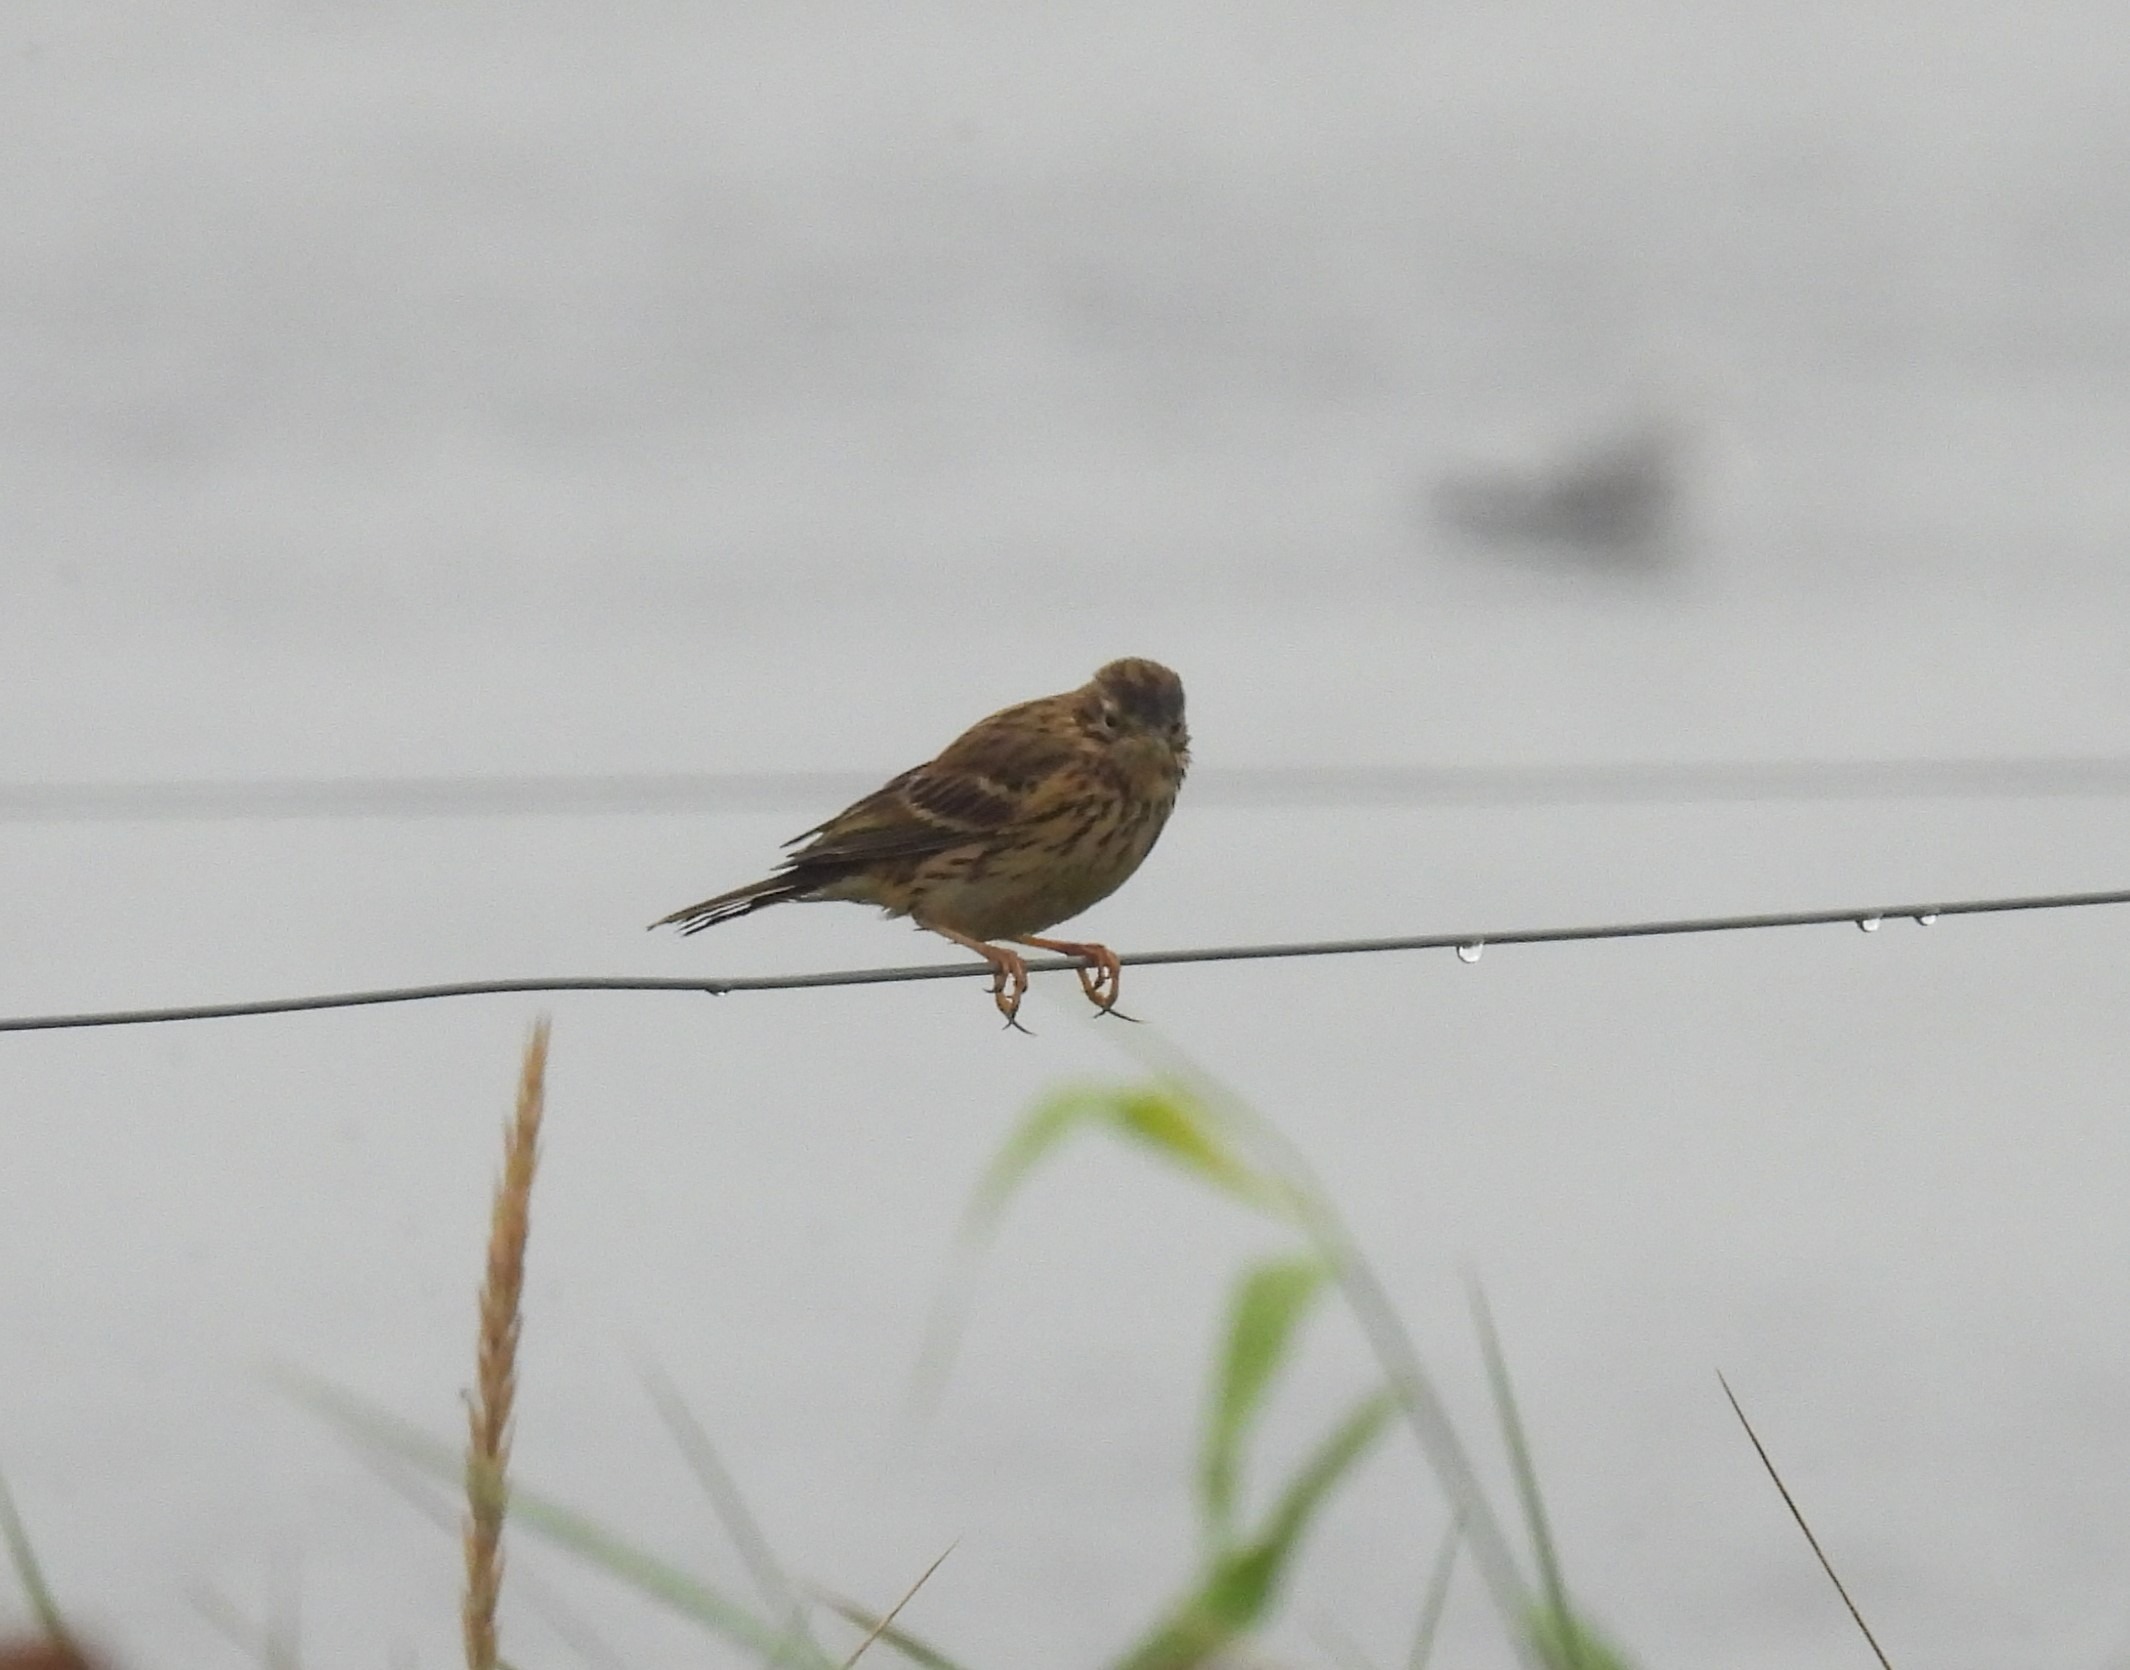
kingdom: Animalia
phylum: Chordata
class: Aves
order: Passeriformes
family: Motacillidae
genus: Anthus
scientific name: Anthus pratensis
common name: Engpiber
